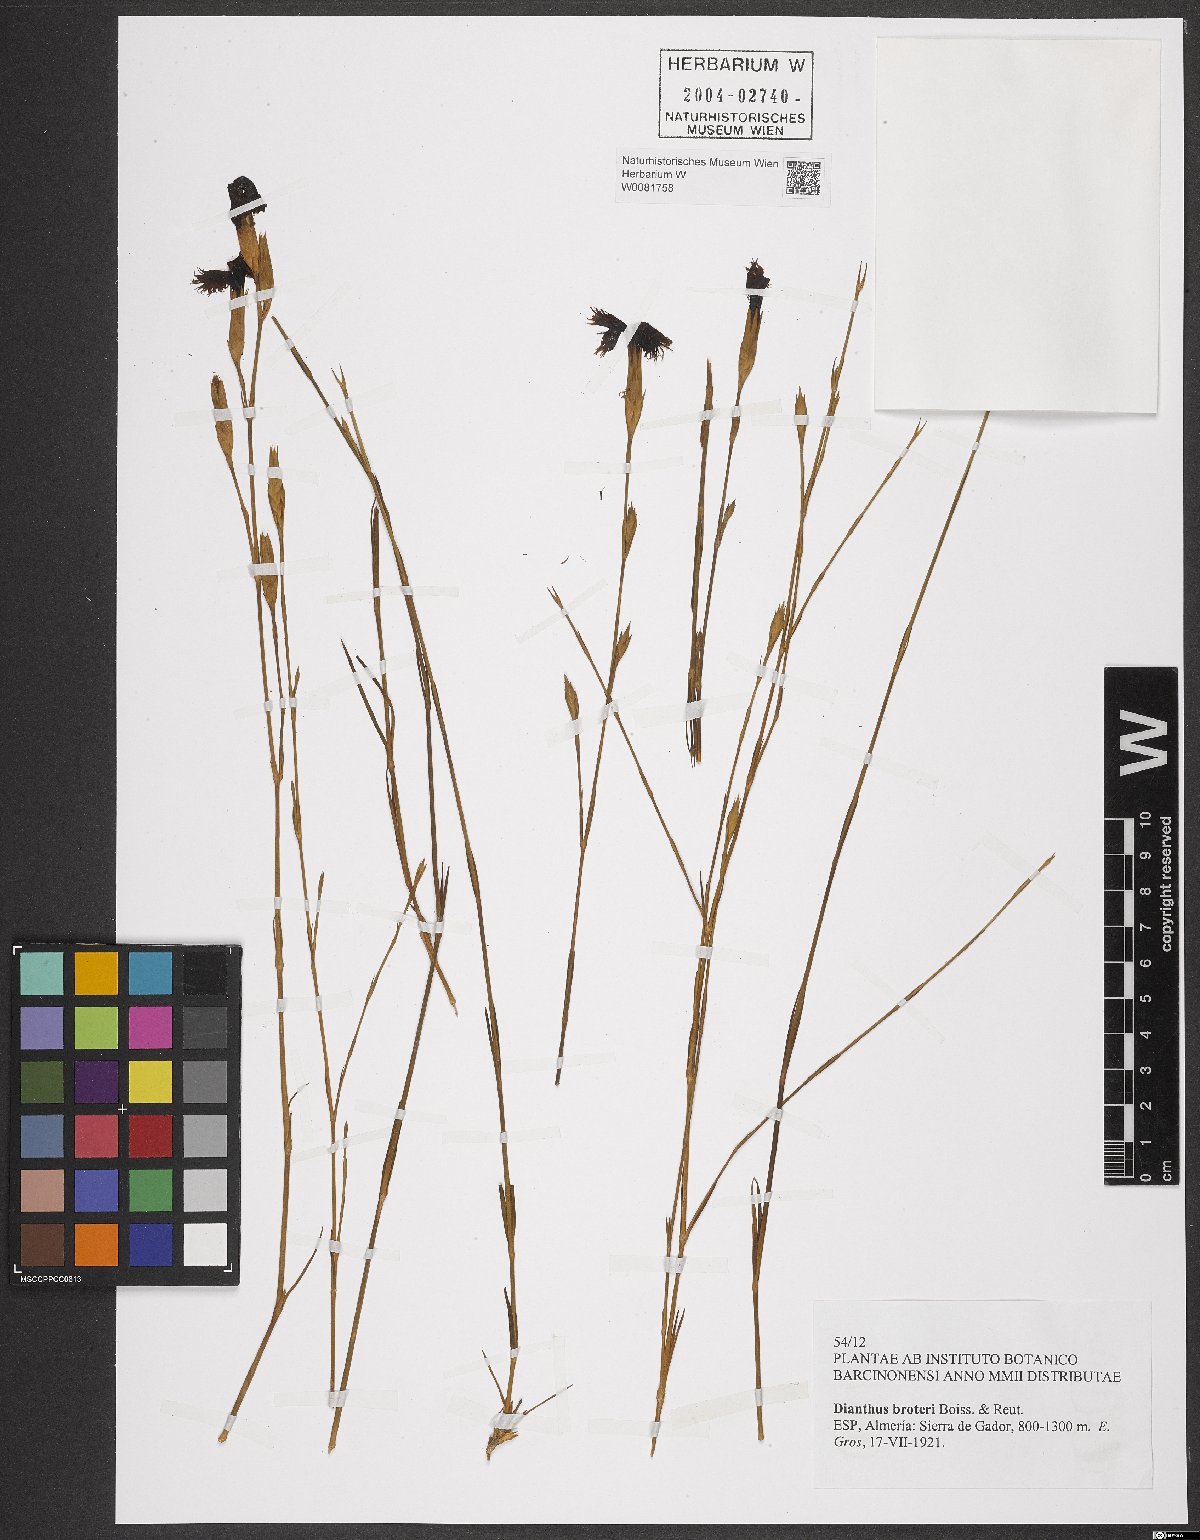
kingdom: Plantae
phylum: Tracheophyta
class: Magnoliopsida
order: Caryophyllales
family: Caryophyllaceae
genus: Dianthus
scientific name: Dianthus broteri
